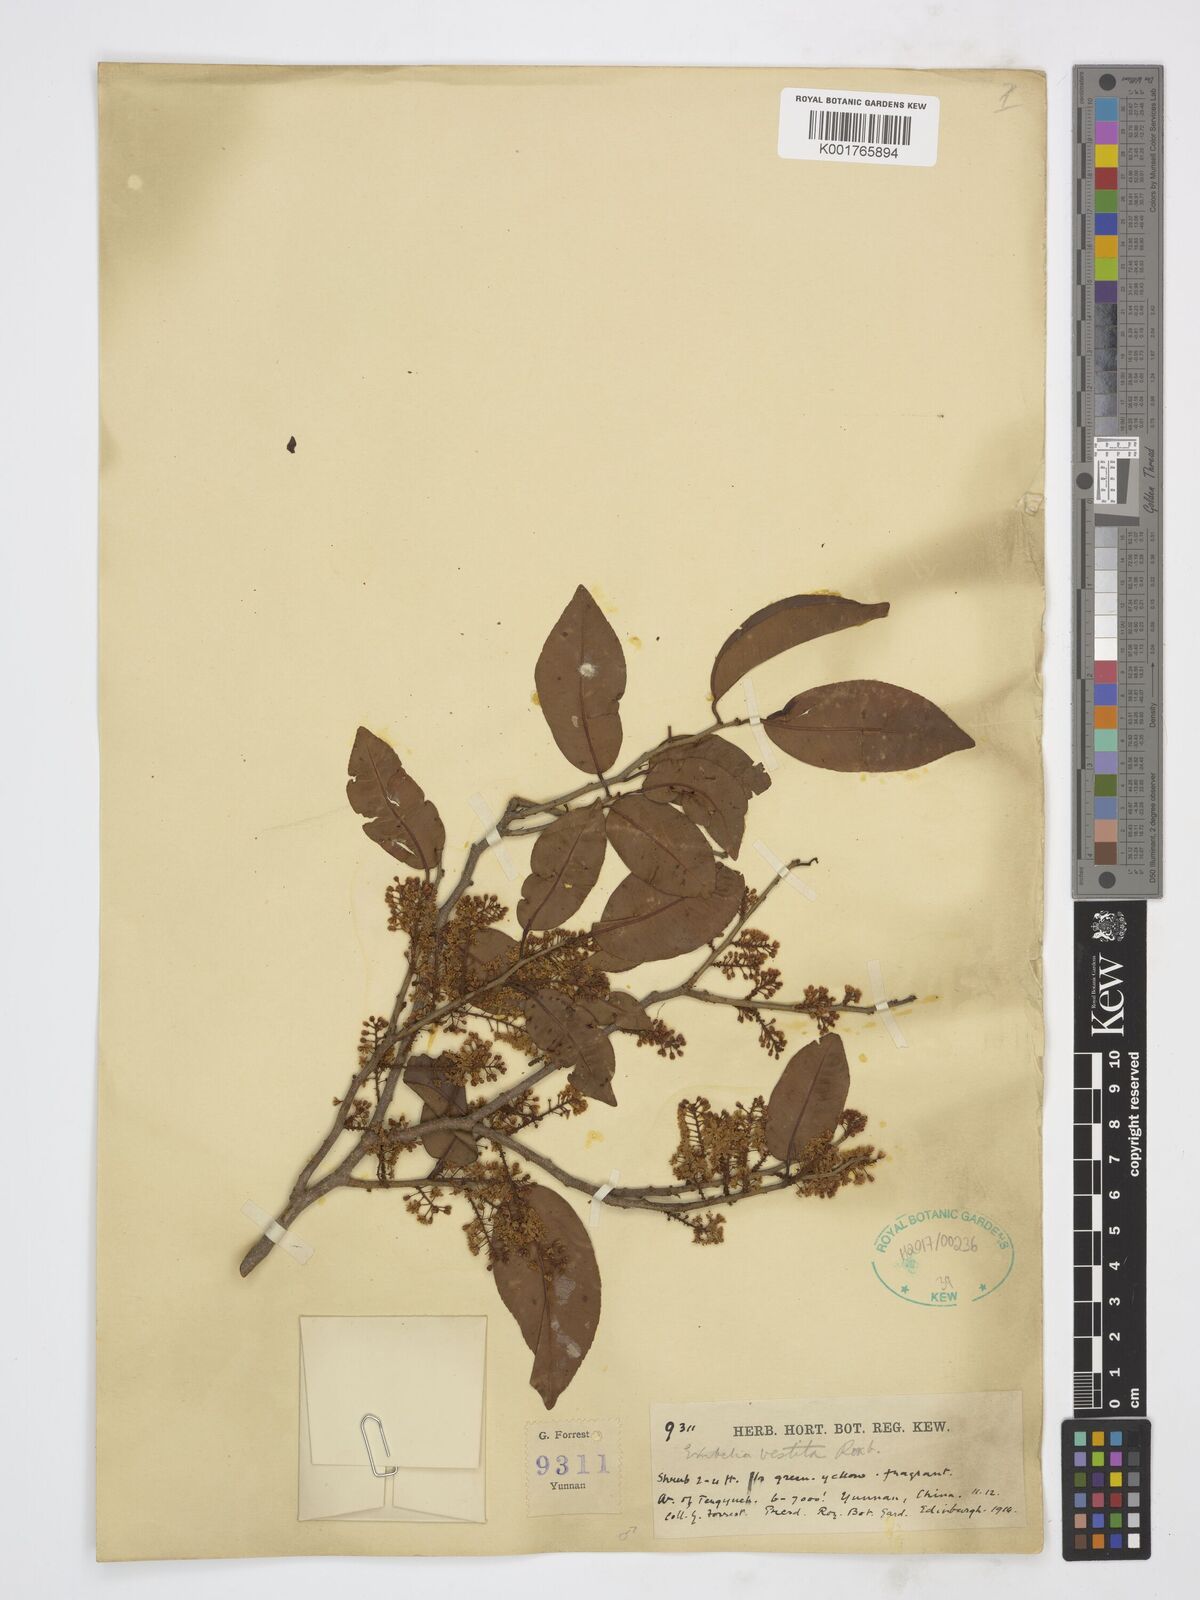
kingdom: Plantae
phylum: Tracheophyta
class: Magnoliopsida
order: Ericales
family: Primulaceae
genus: Embelia
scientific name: Embelia vestita
